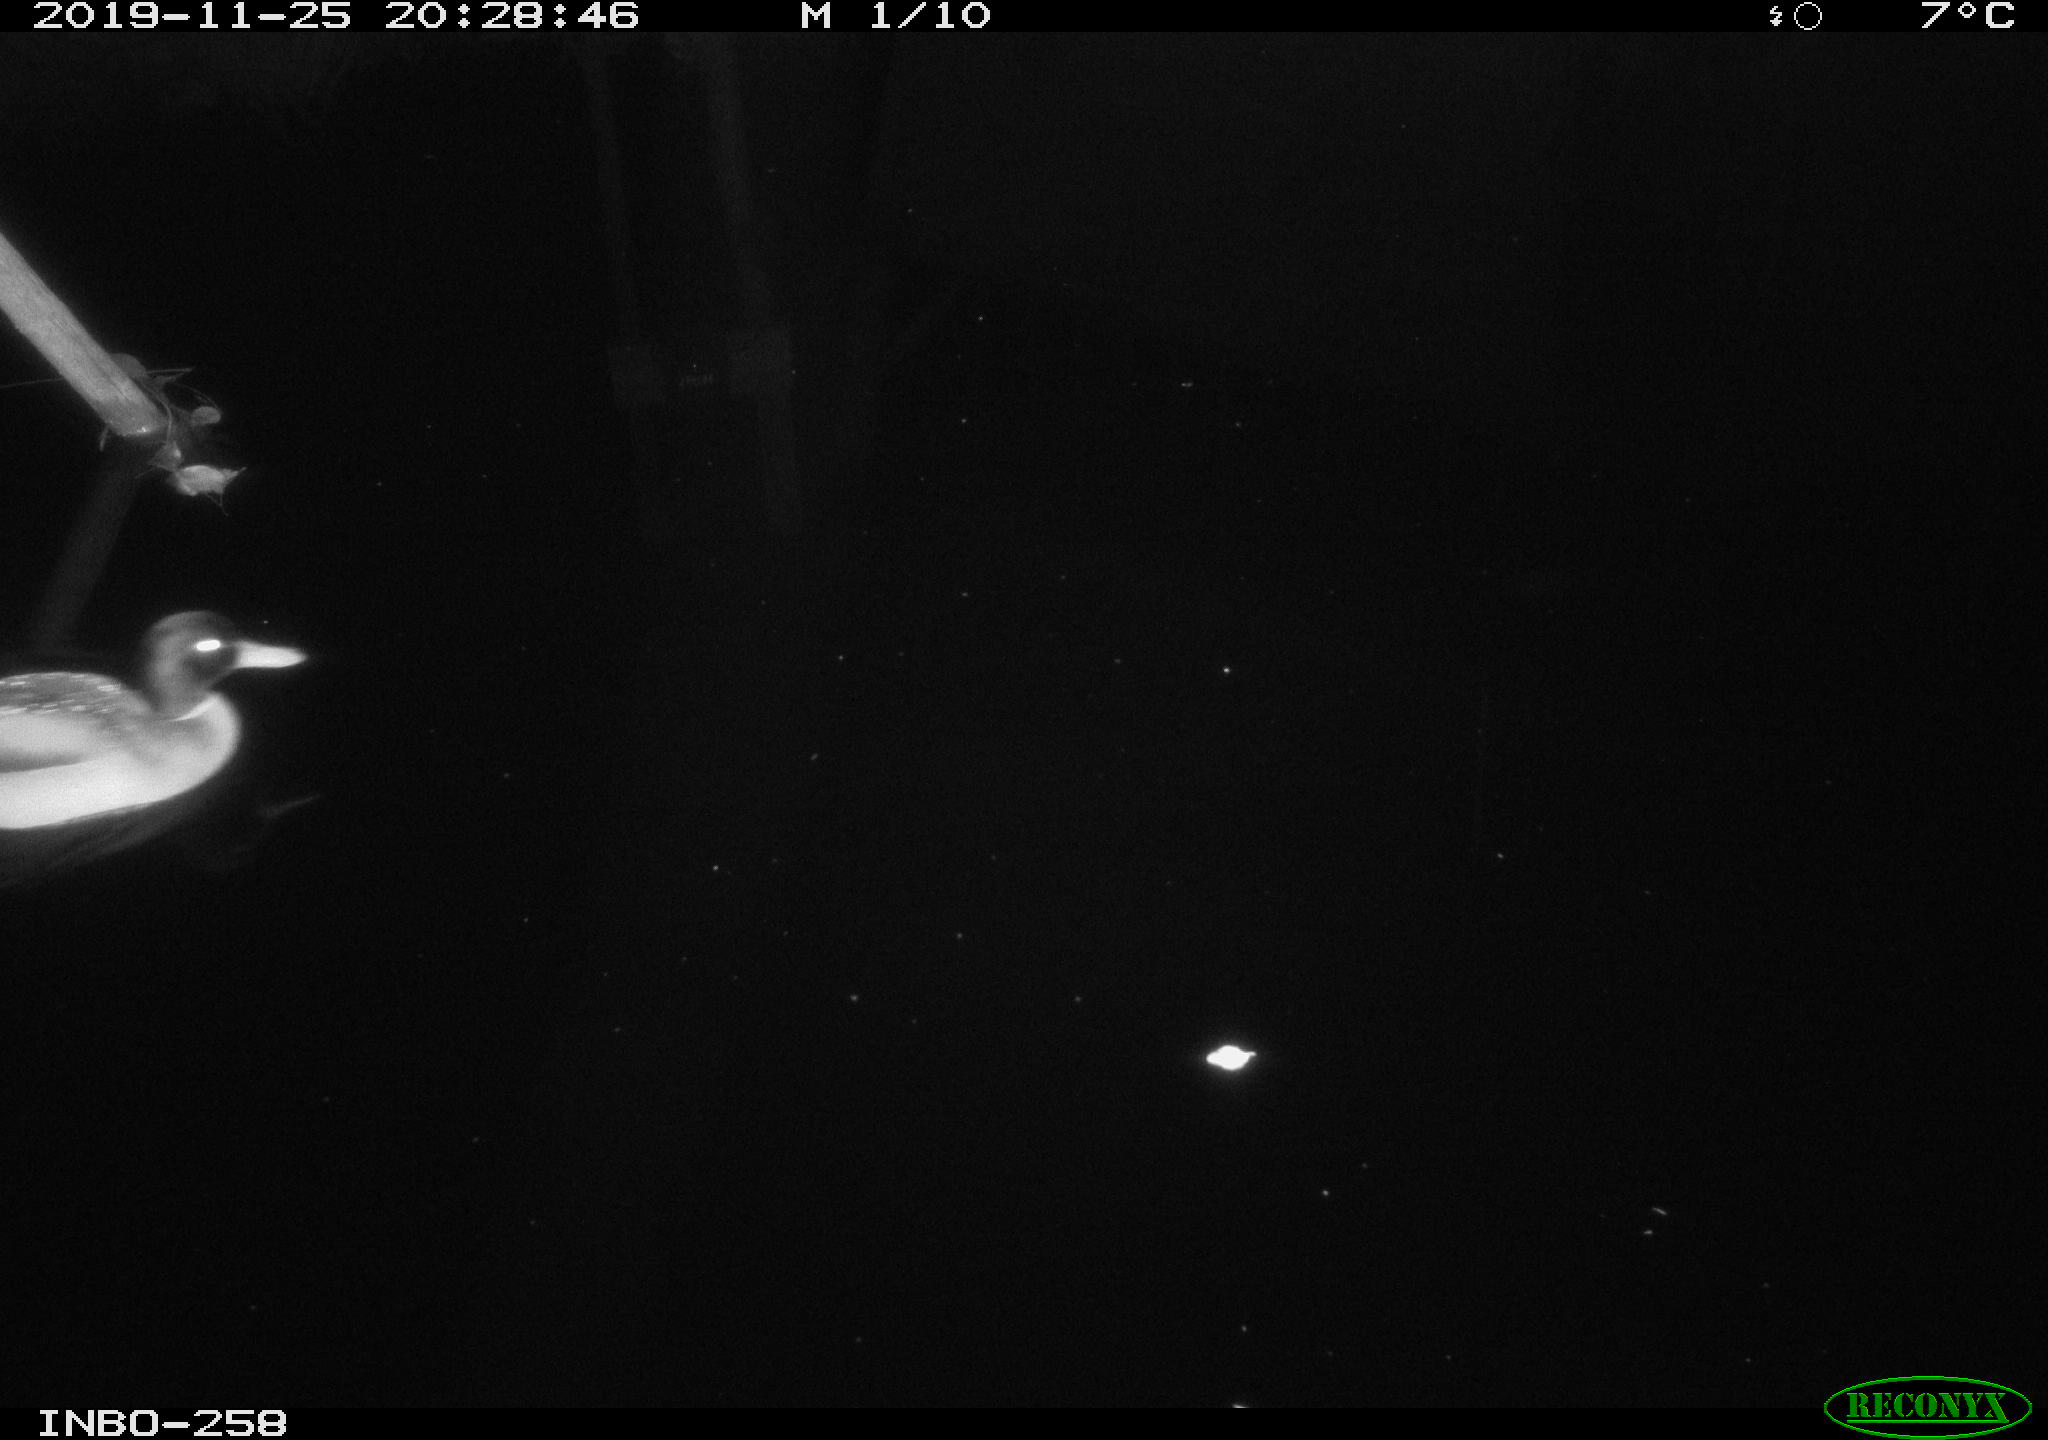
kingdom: Animalia
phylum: Chordata
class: Aves
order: Anseriformes
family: Anatidae
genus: Anas
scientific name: Anas platyrhynchos
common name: Mallard
